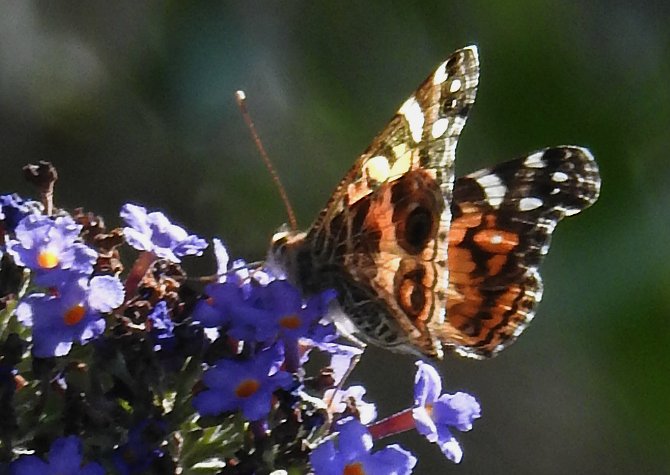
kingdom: Animalia
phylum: Arthropoda
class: Insecta
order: Lepidoptera
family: Nymphalidae
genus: Vanessa
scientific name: Vanessa virginiensis
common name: American Lady
